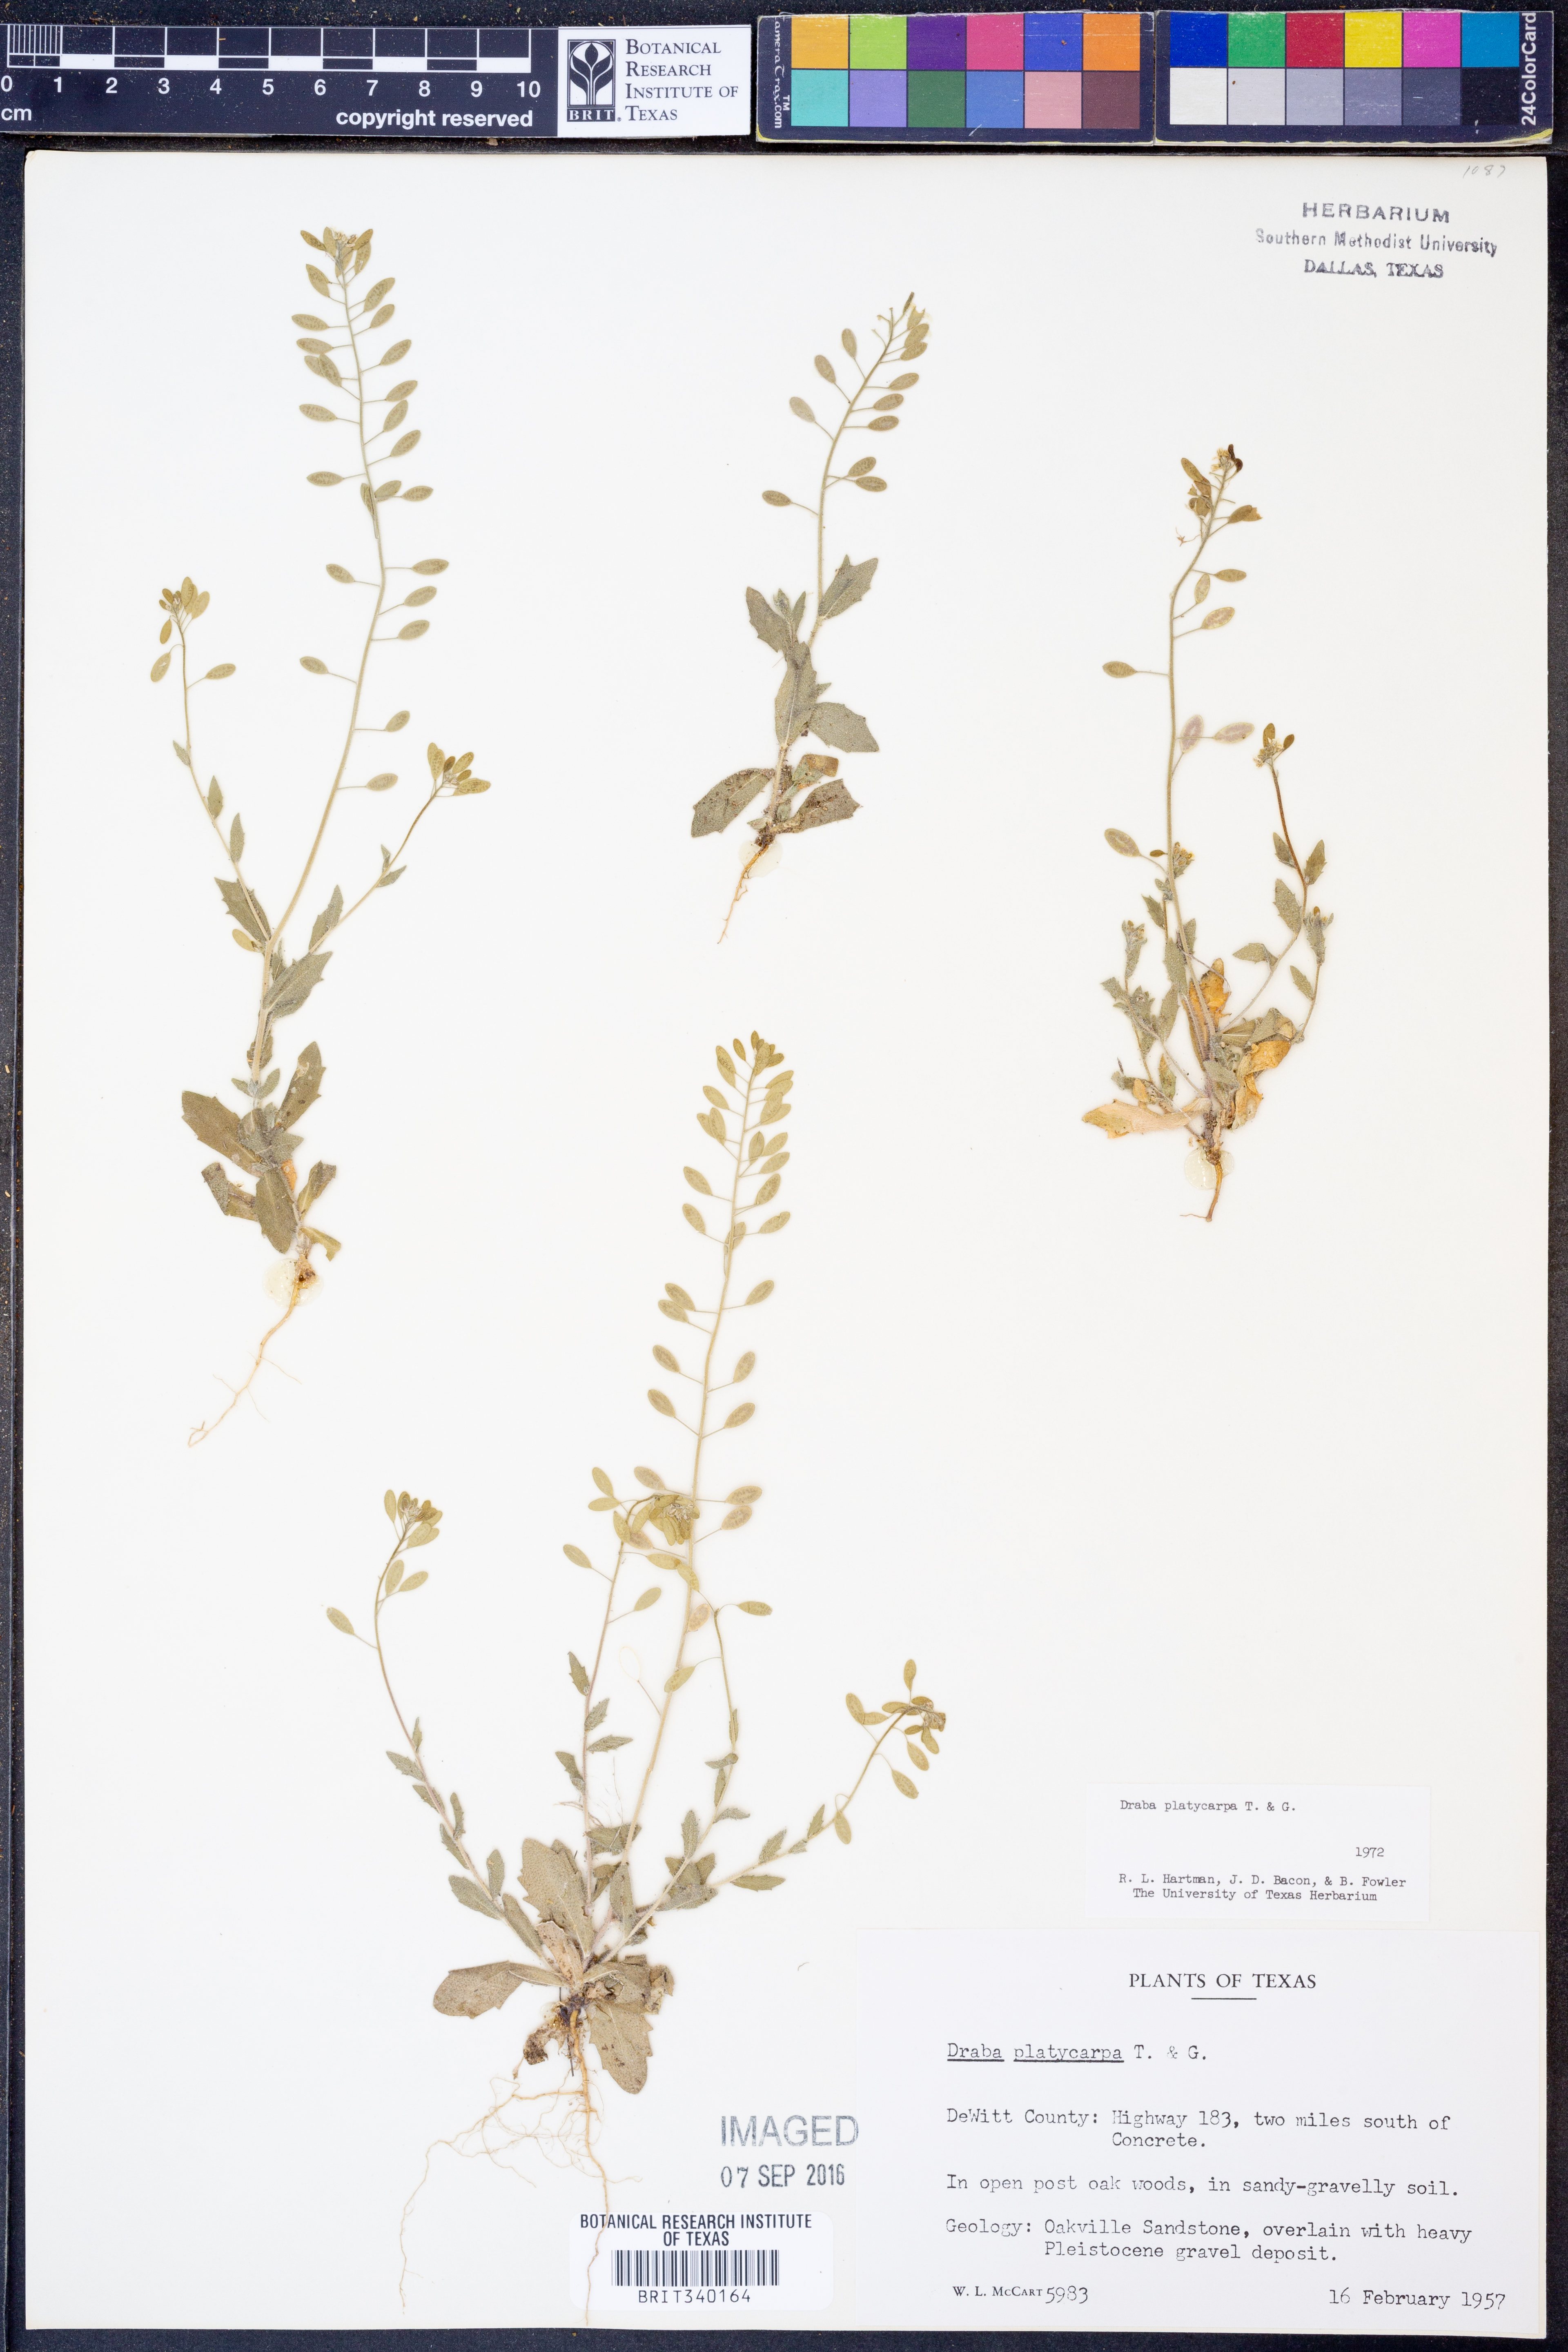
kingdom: Plantae
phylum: Tracheophyta
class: Magnoliopsida
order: Brassicales
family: Brassicaceae
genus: Tomostima
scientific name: Tomostima platycarpa
